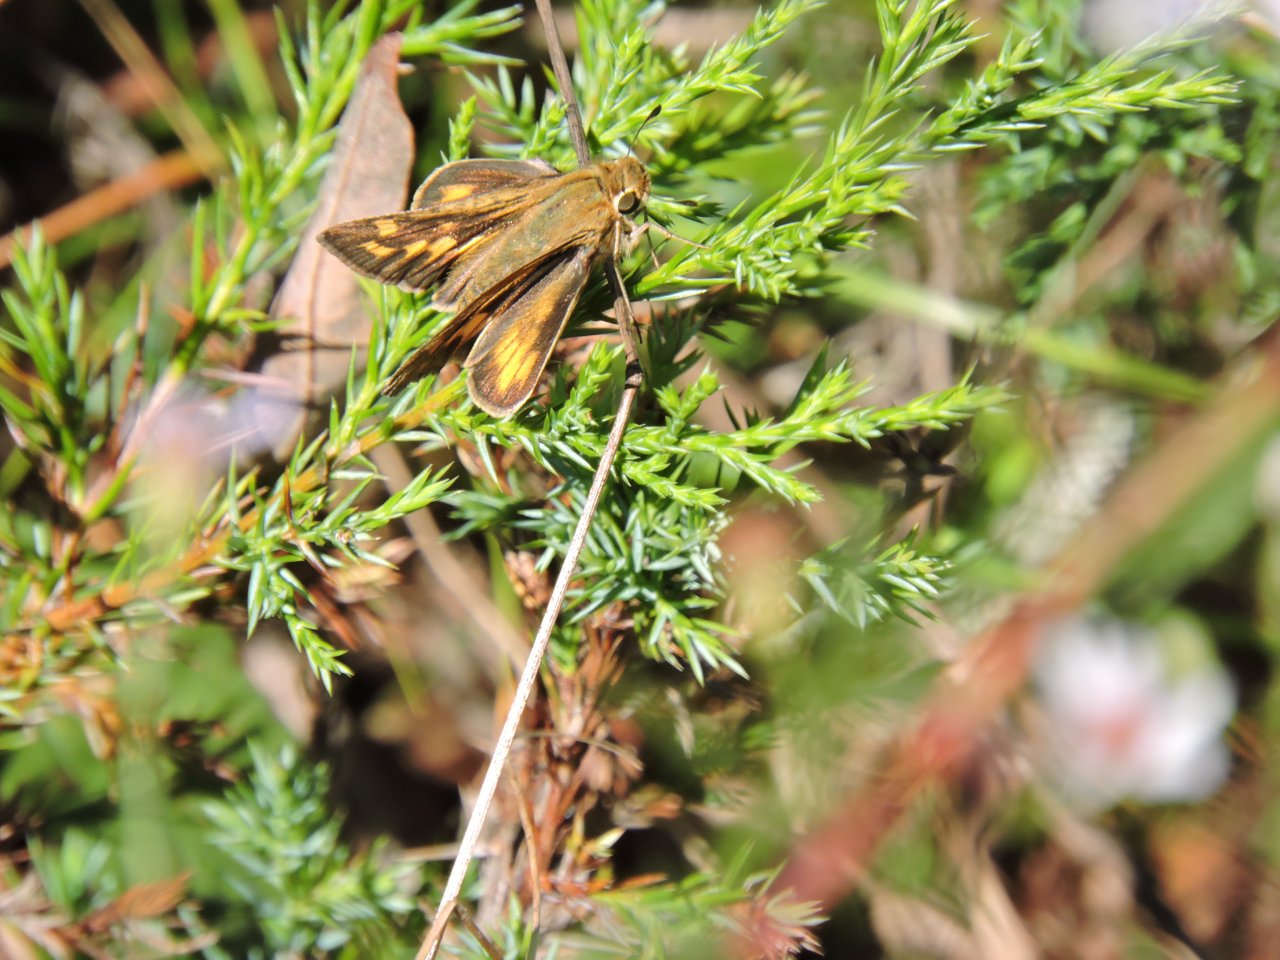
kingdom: Animalia
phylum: Arthropoda
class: Insecta
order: Lepidoptera
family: Hesperiidae
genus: Atalopedes
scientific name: Atalopedes campestris
